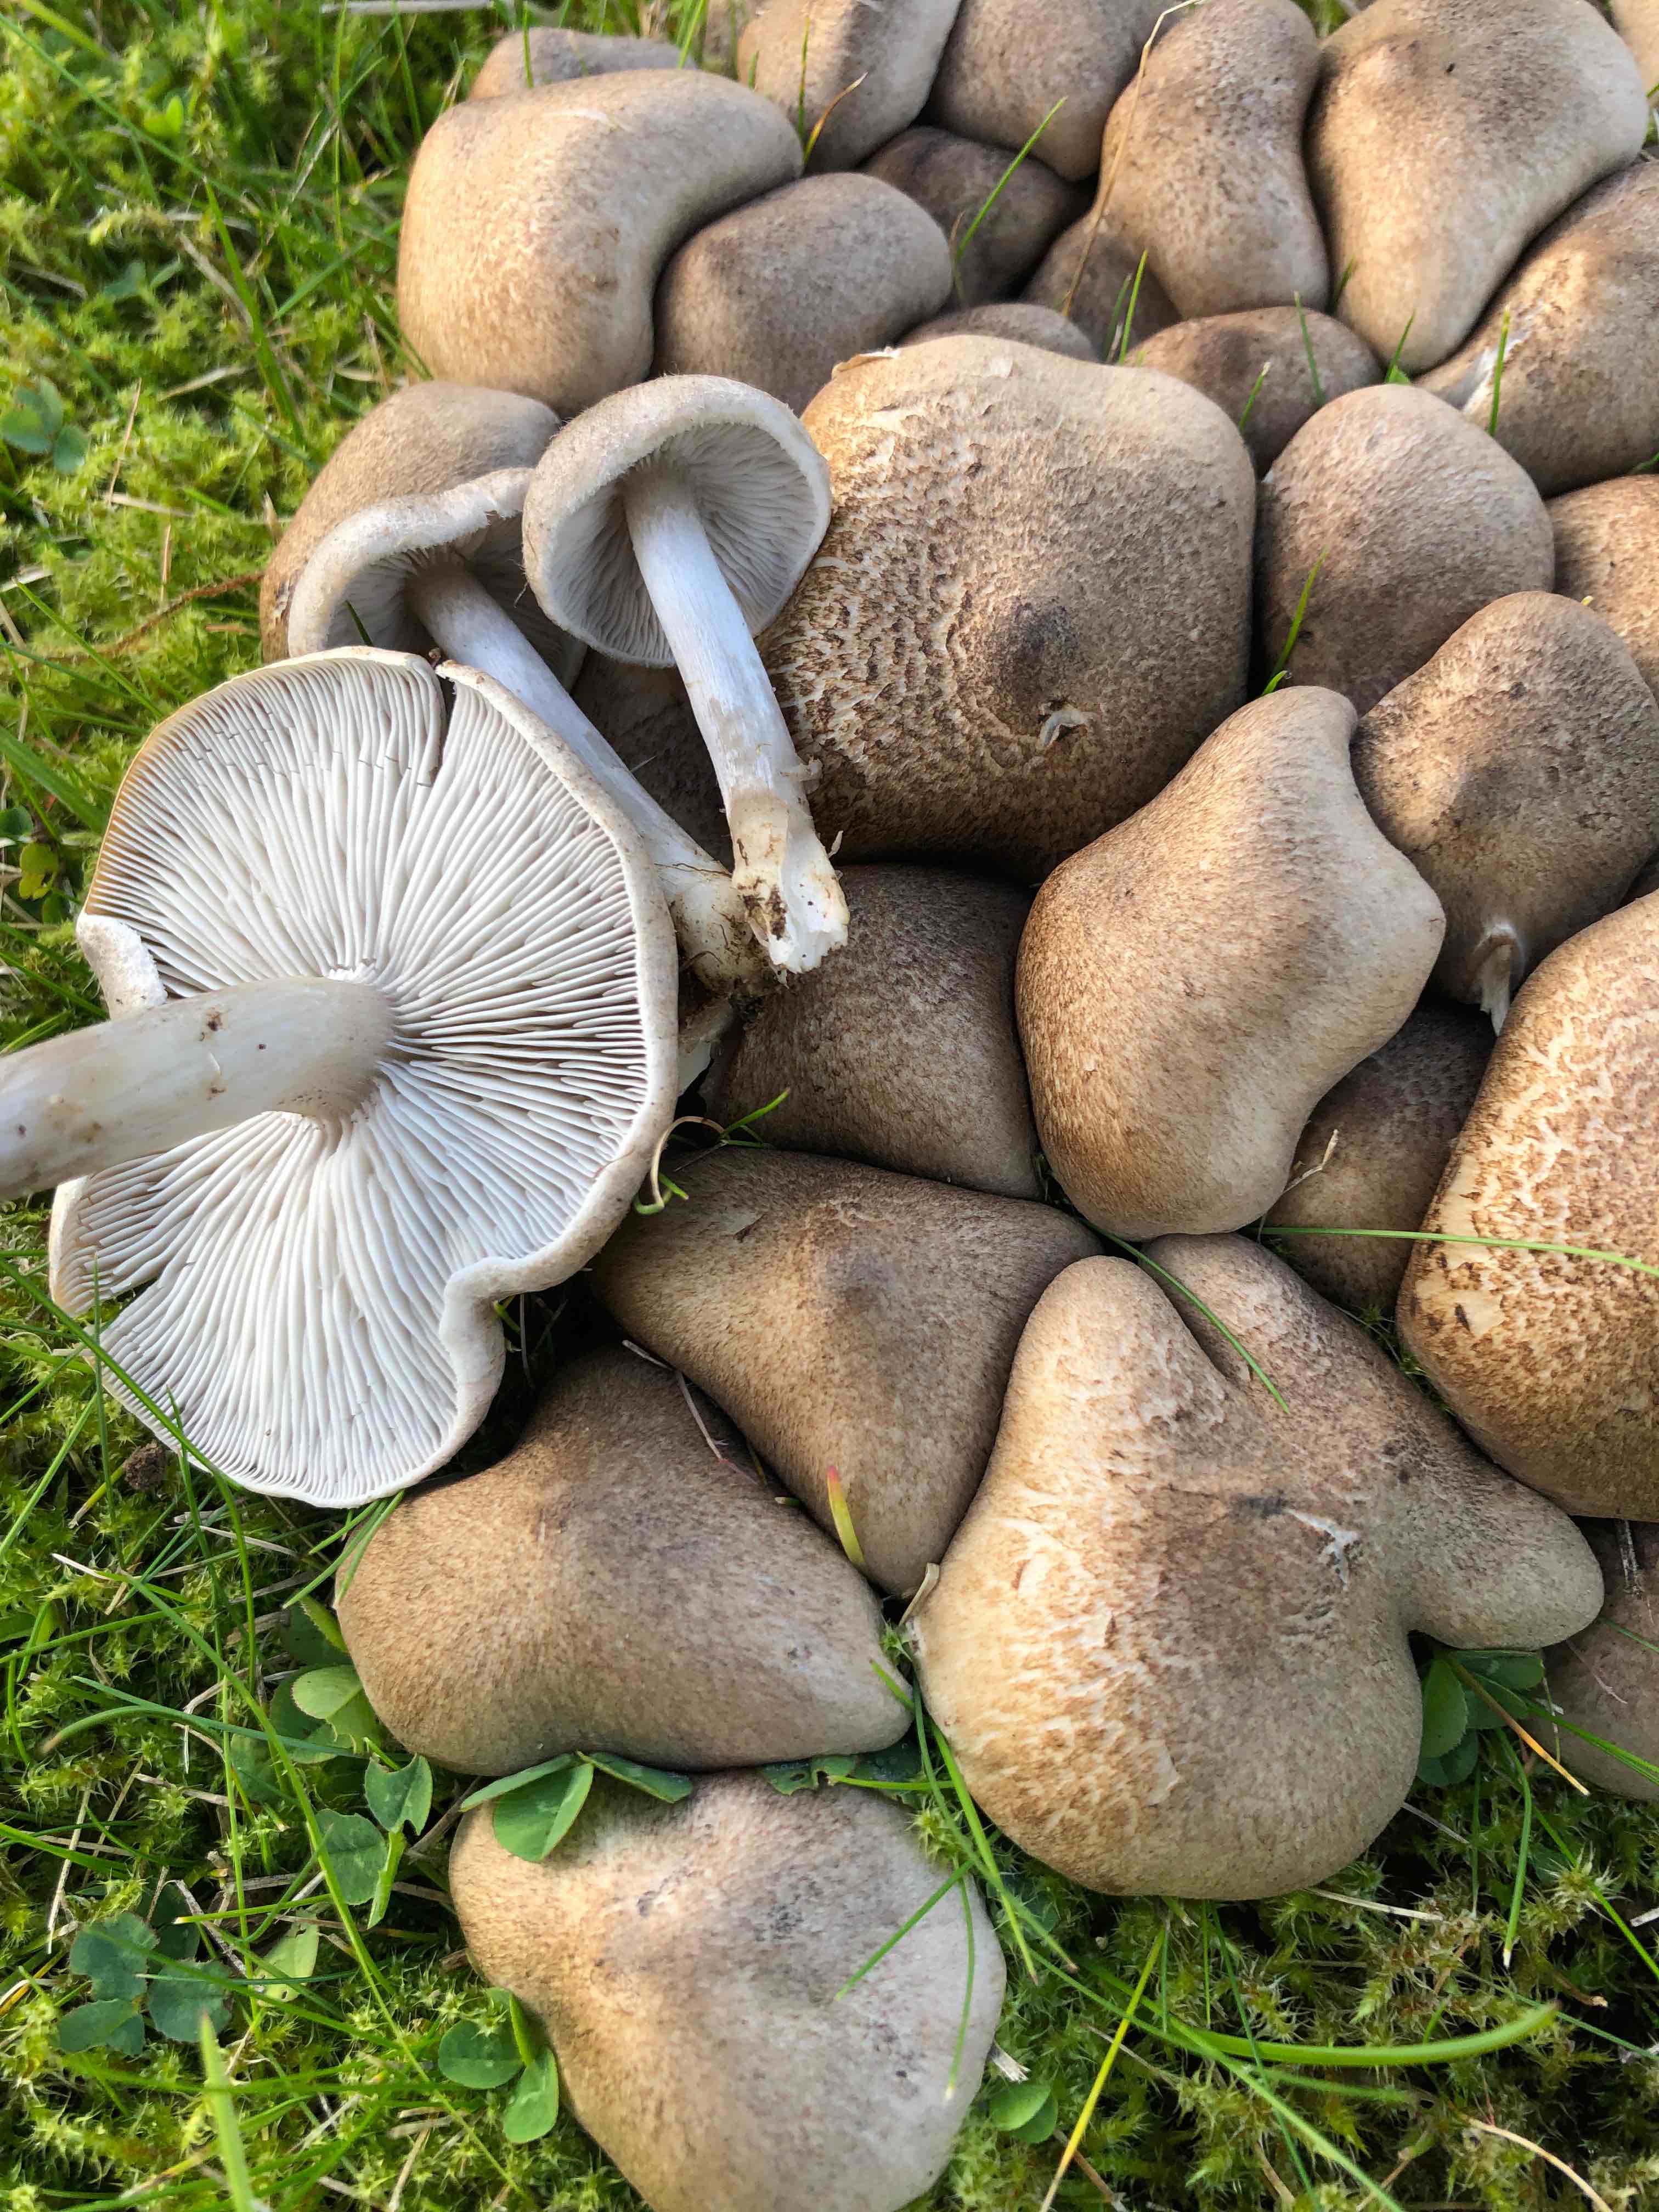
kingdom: Fungi
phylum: Basidiomycota
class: Agaricomycetes
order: Agaricales
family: Tricholomataceae
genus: Tricholoma
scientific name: Tricholoma scalpturatum
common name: gulplettet ridderhat
